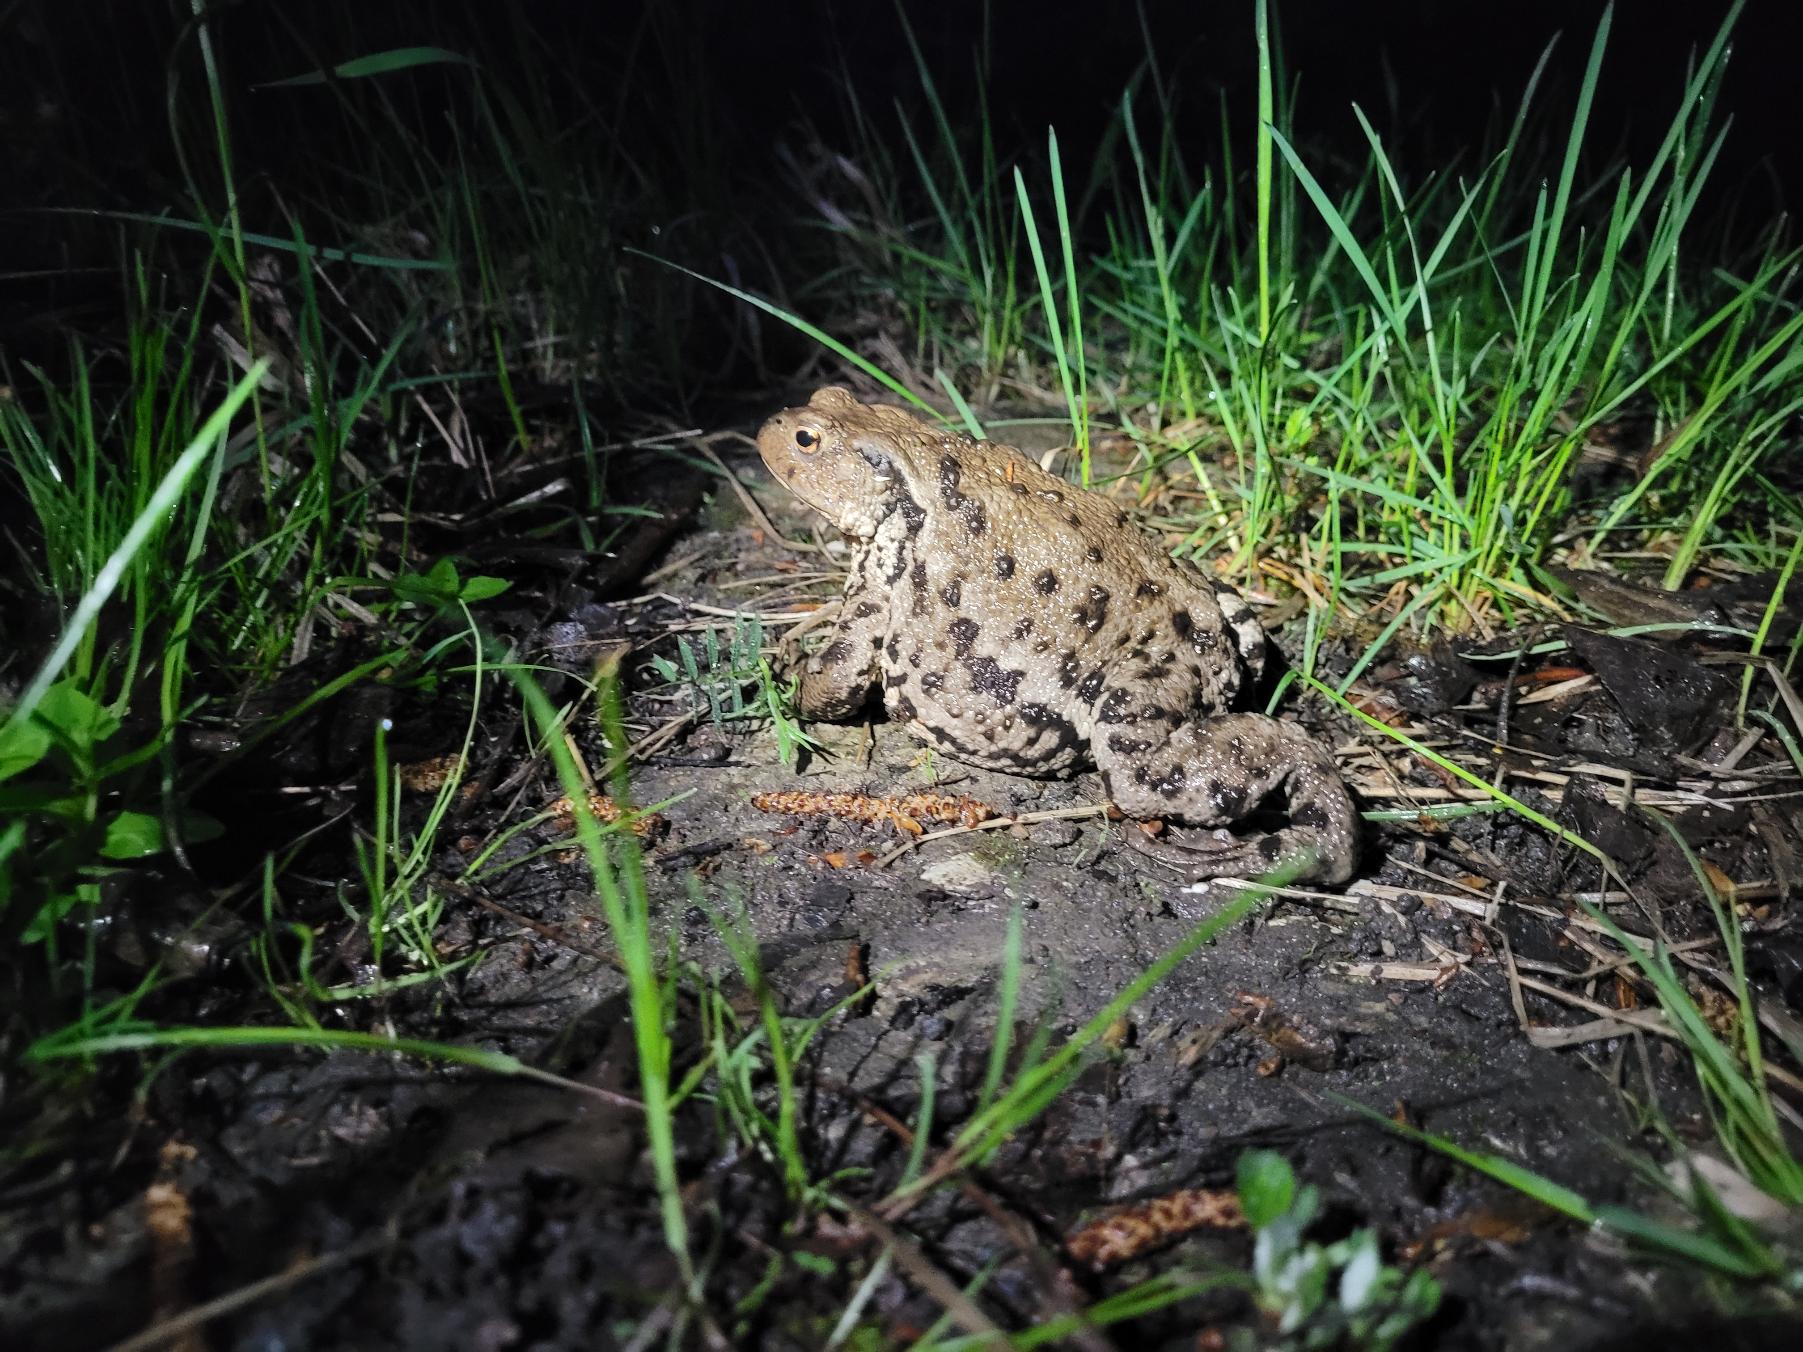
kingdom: Animalia
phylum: Chordata
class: Amphibia
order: Anura
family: Bufonidae
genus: Bufo
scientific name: Bufo bufo
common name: Skrubtudse
